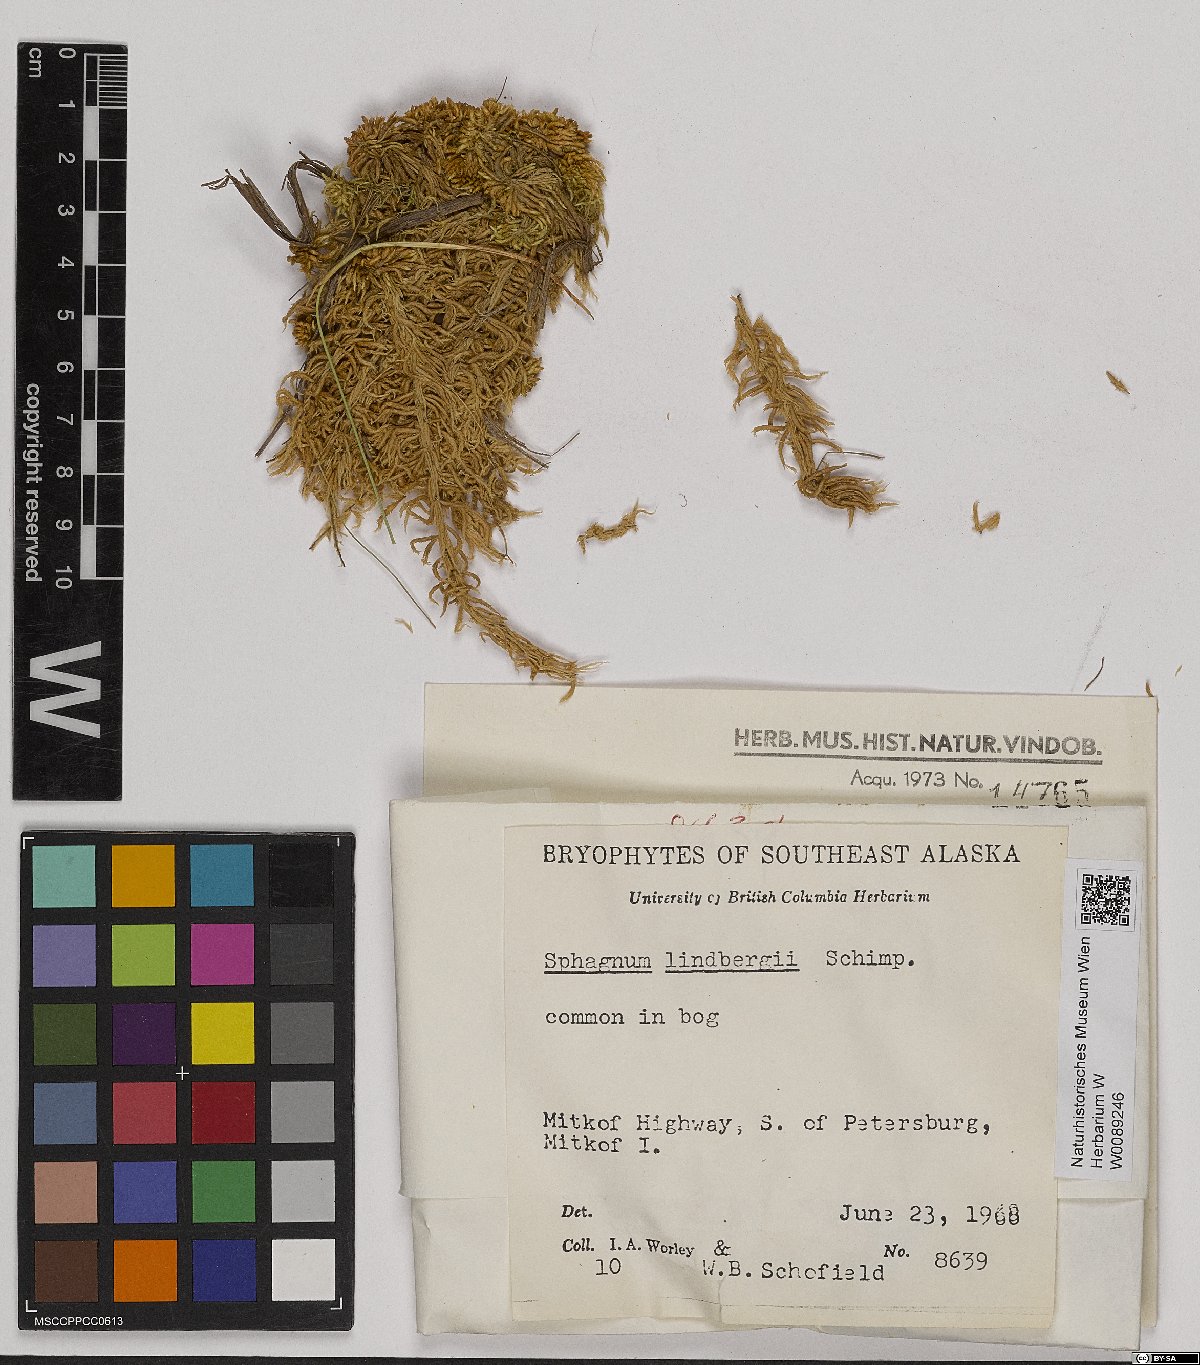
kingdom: Plantae
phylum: Bryophyta
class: Sphagnopsida
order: Sphagnales
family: Sphagnaceae
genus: Sphagnum
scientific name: Sphagnum lindbergii
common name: Lindberg's peat moss
